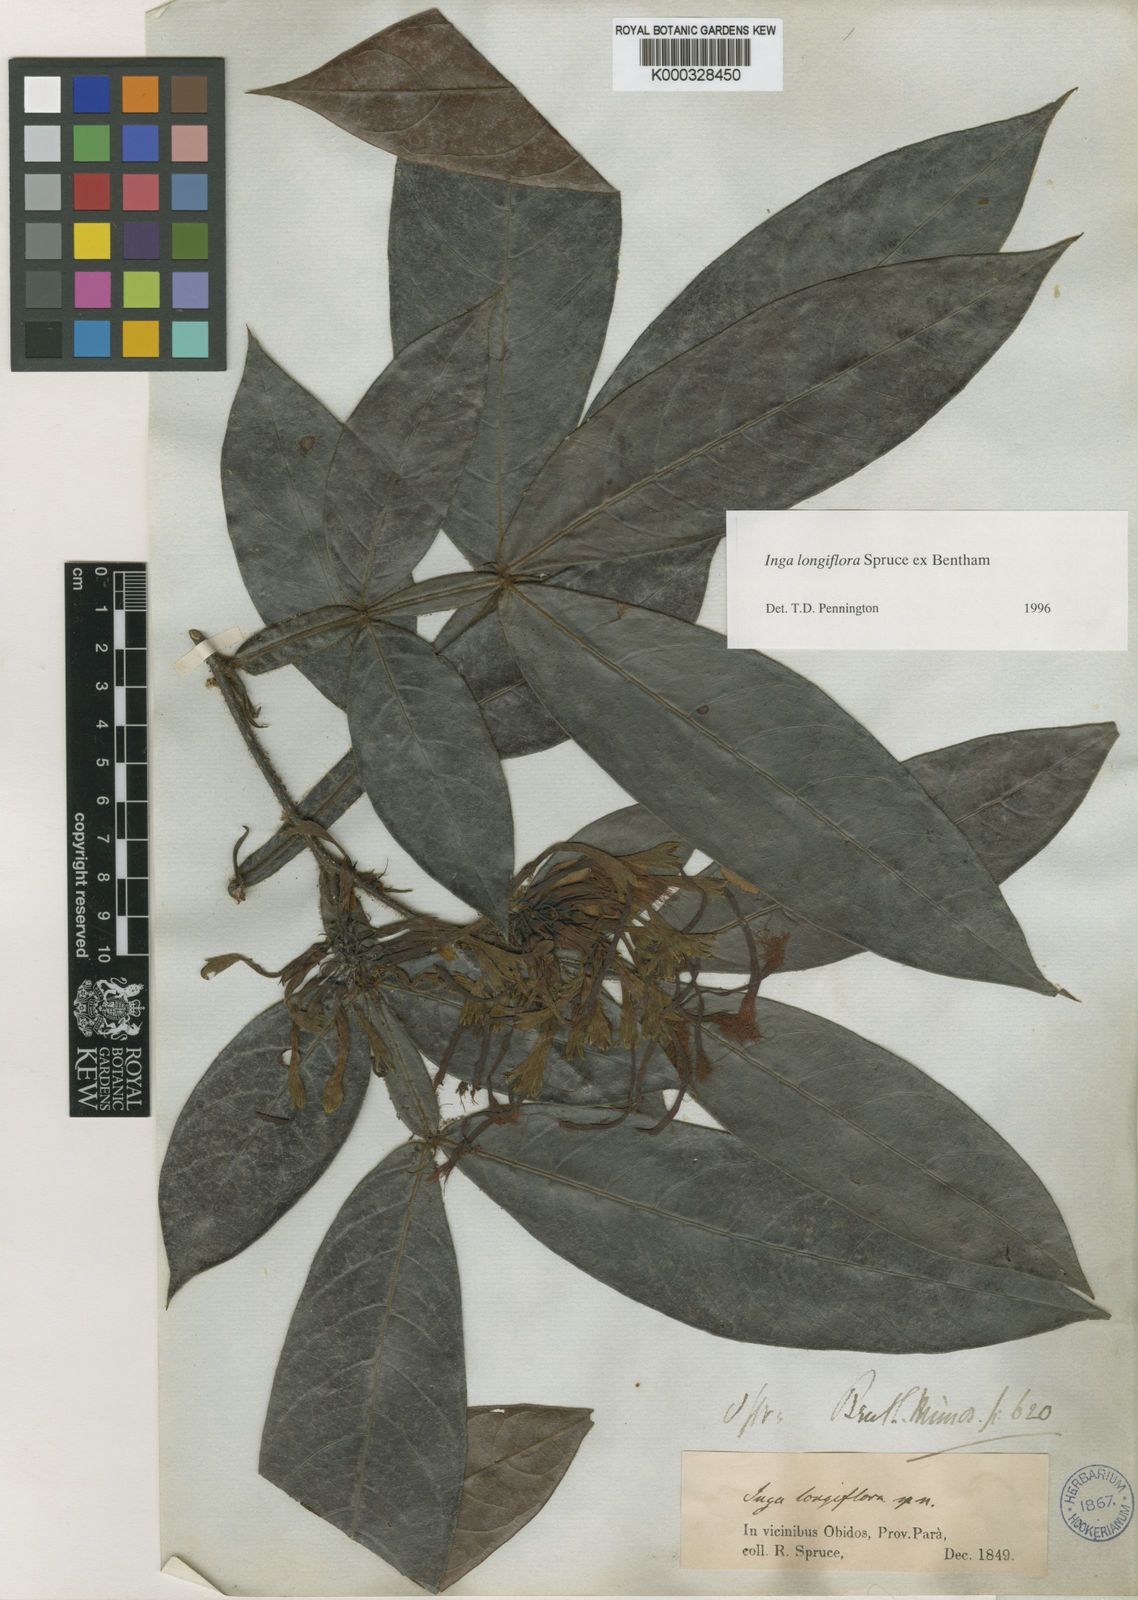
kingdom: Plantae
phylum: Tracheophyta
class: Magnoliopsida
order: Fabales
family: Fabaceae
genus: Inga
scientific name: Inga longiflora
